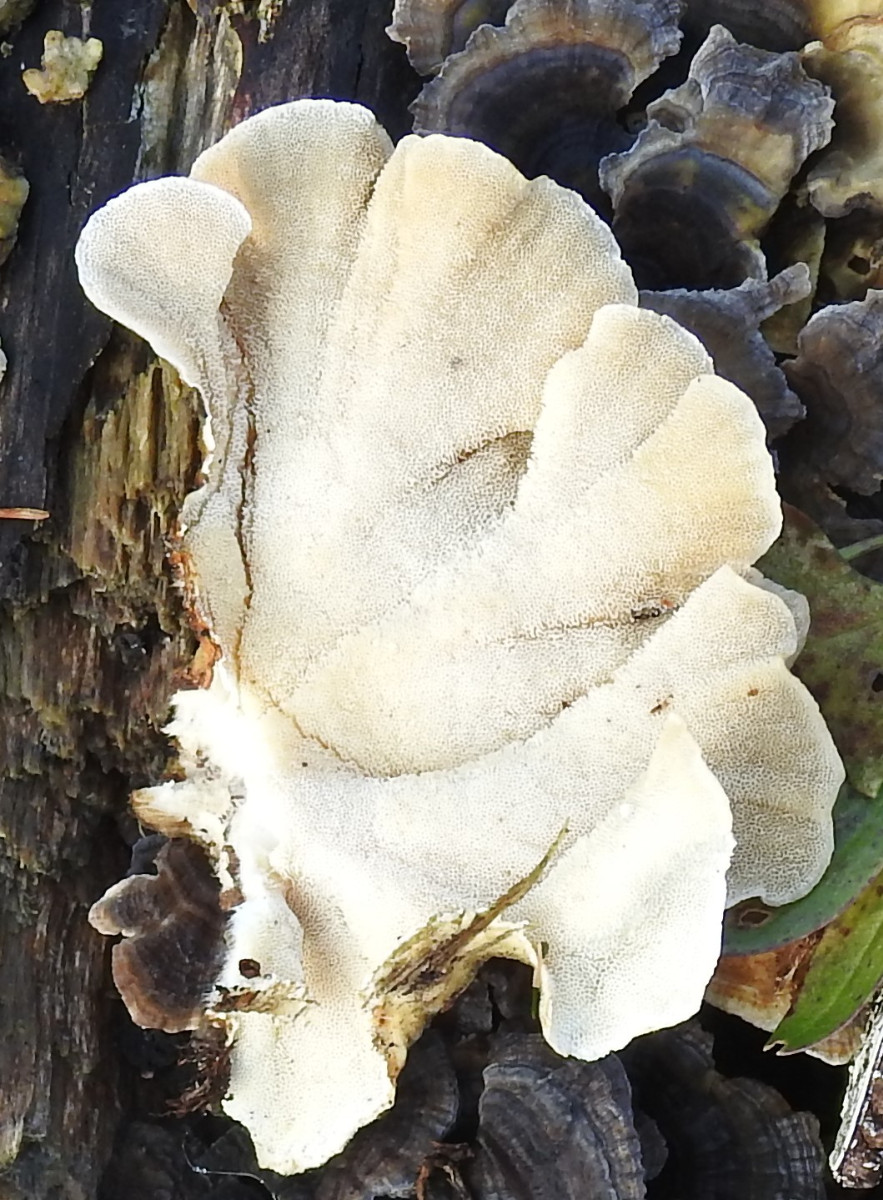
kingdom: Fungi
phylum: Basidiomycota
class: Agaricomycetes
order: Polyporales
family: Polyporaceae
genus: Trametes
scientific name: Trametes versicolor
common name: broget læderporesvamp
